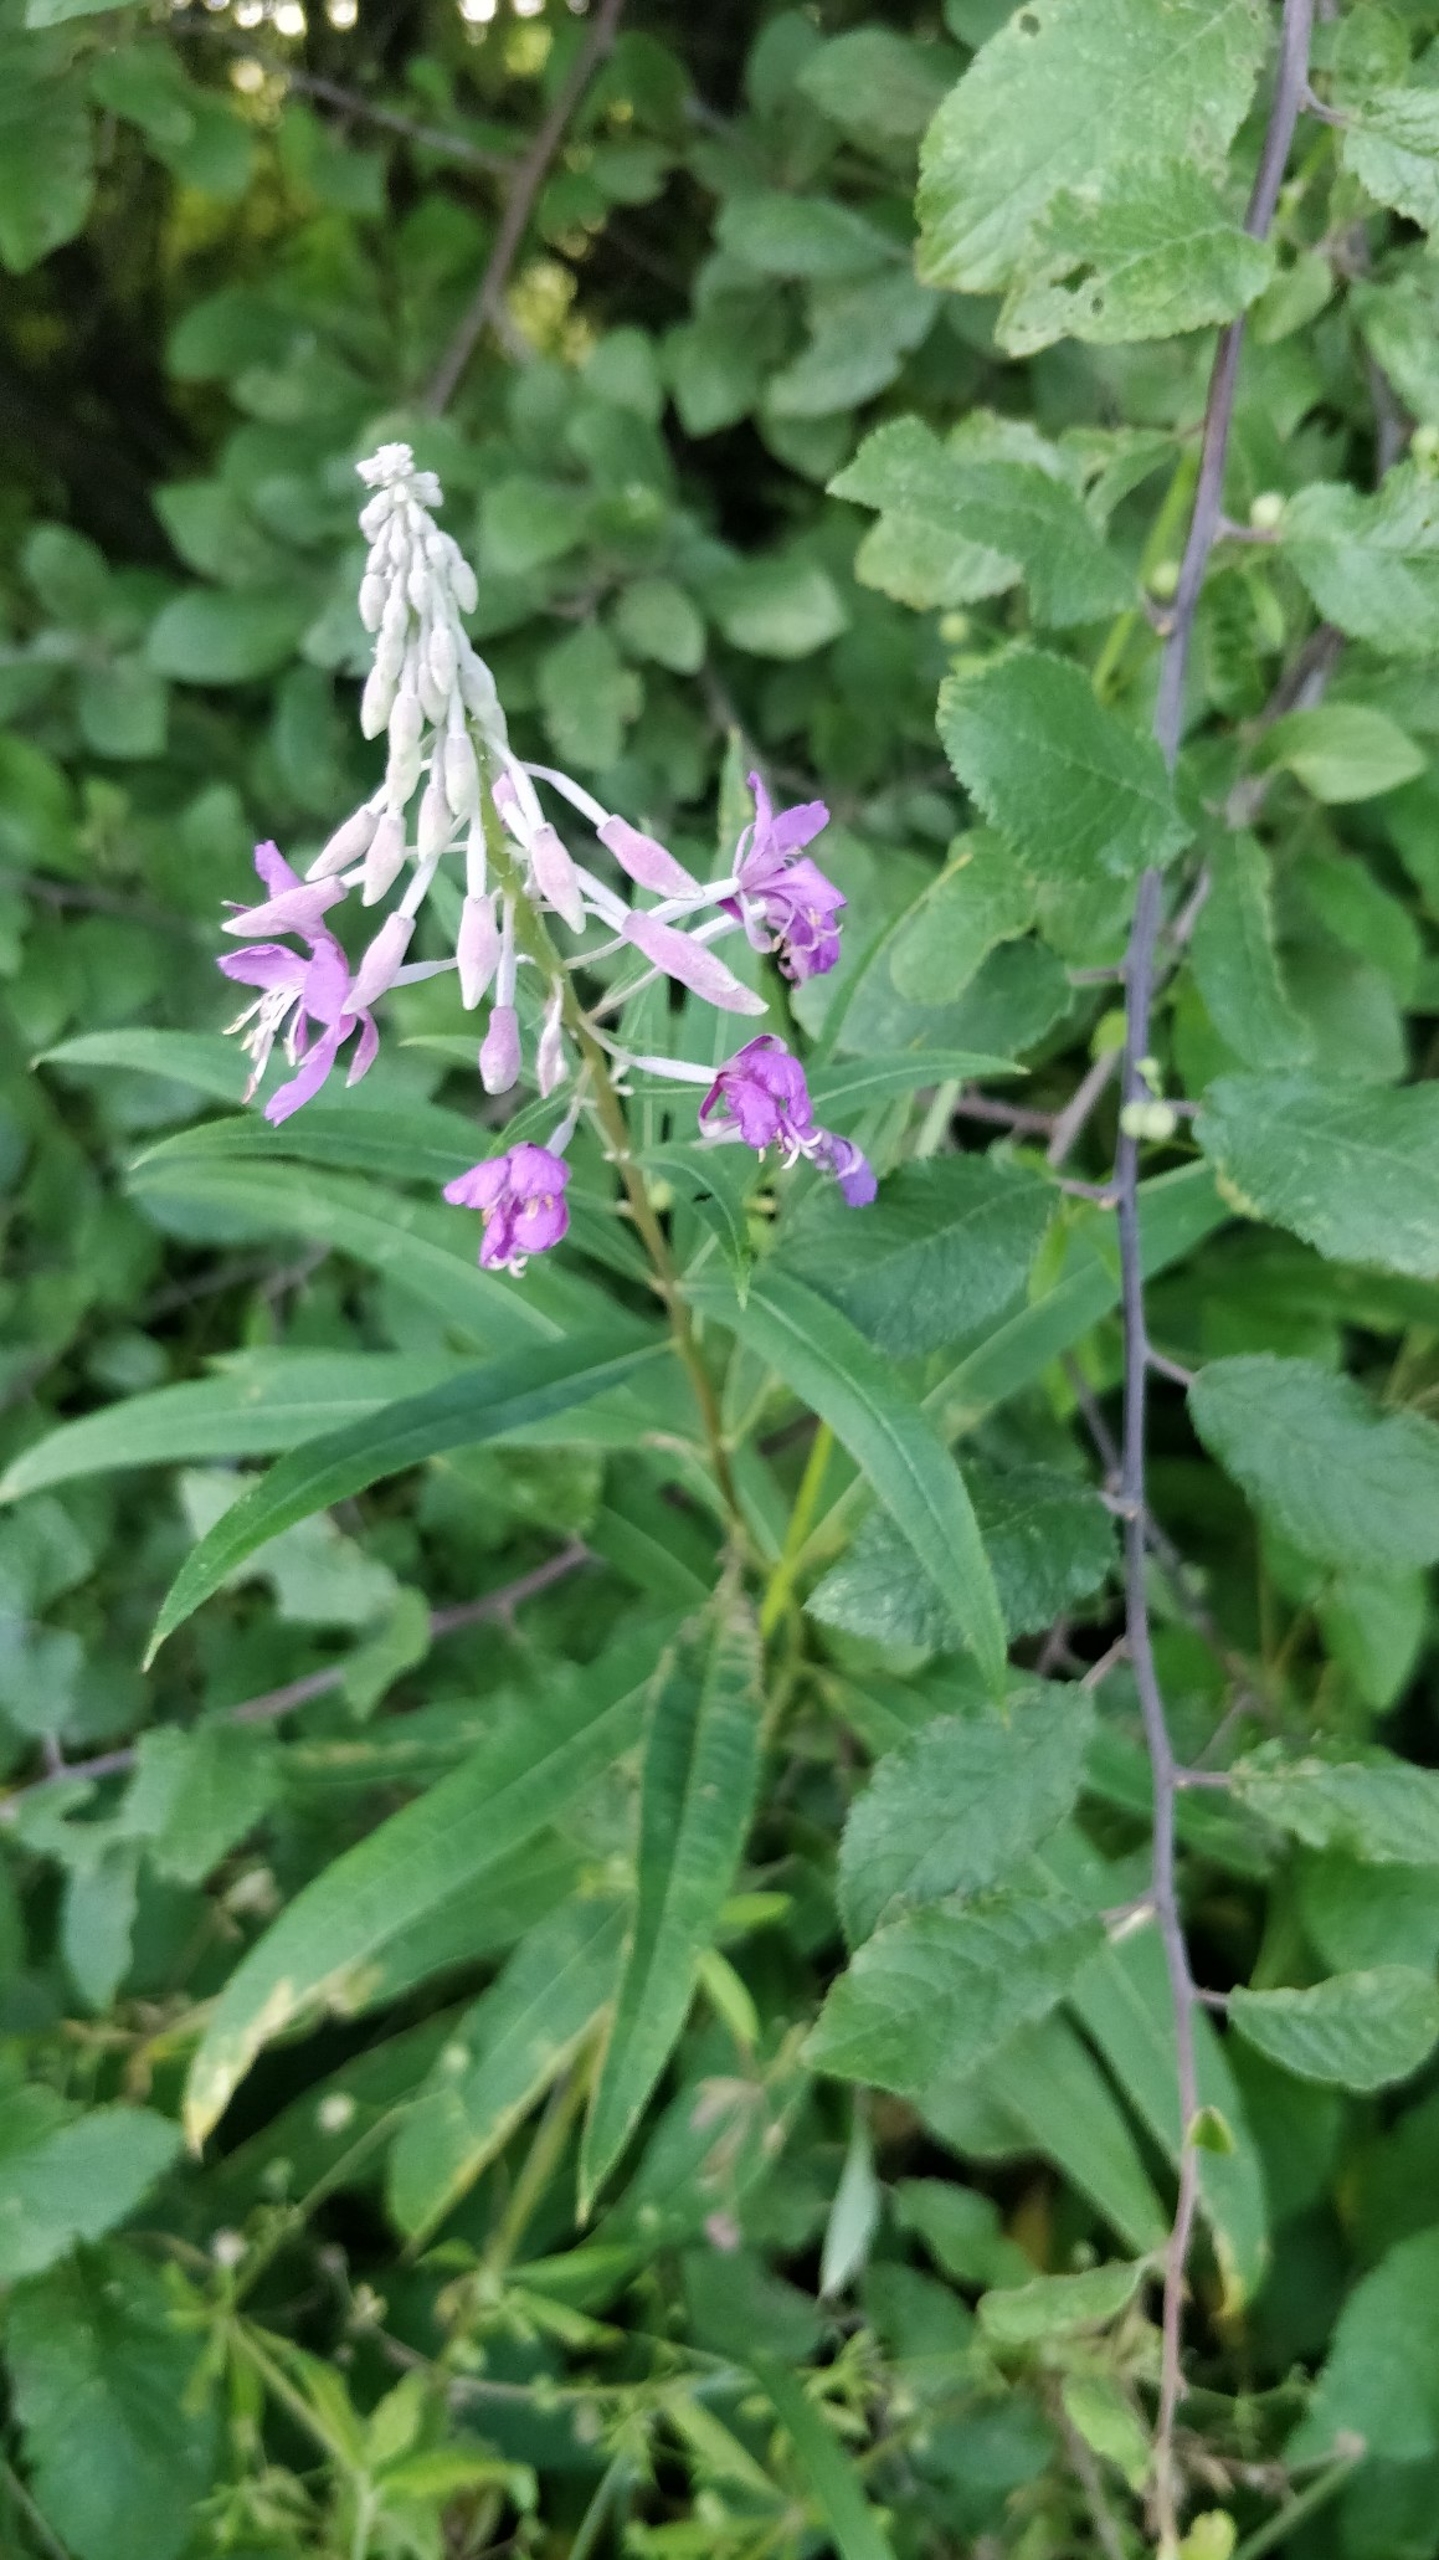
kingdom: Plantae
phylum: Tracheophyta
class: Magnoliopsida
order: Myrtales
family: Onagraceae
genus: Chamaenerion
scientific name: Chamaenerion angustifolium
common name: Gederams
